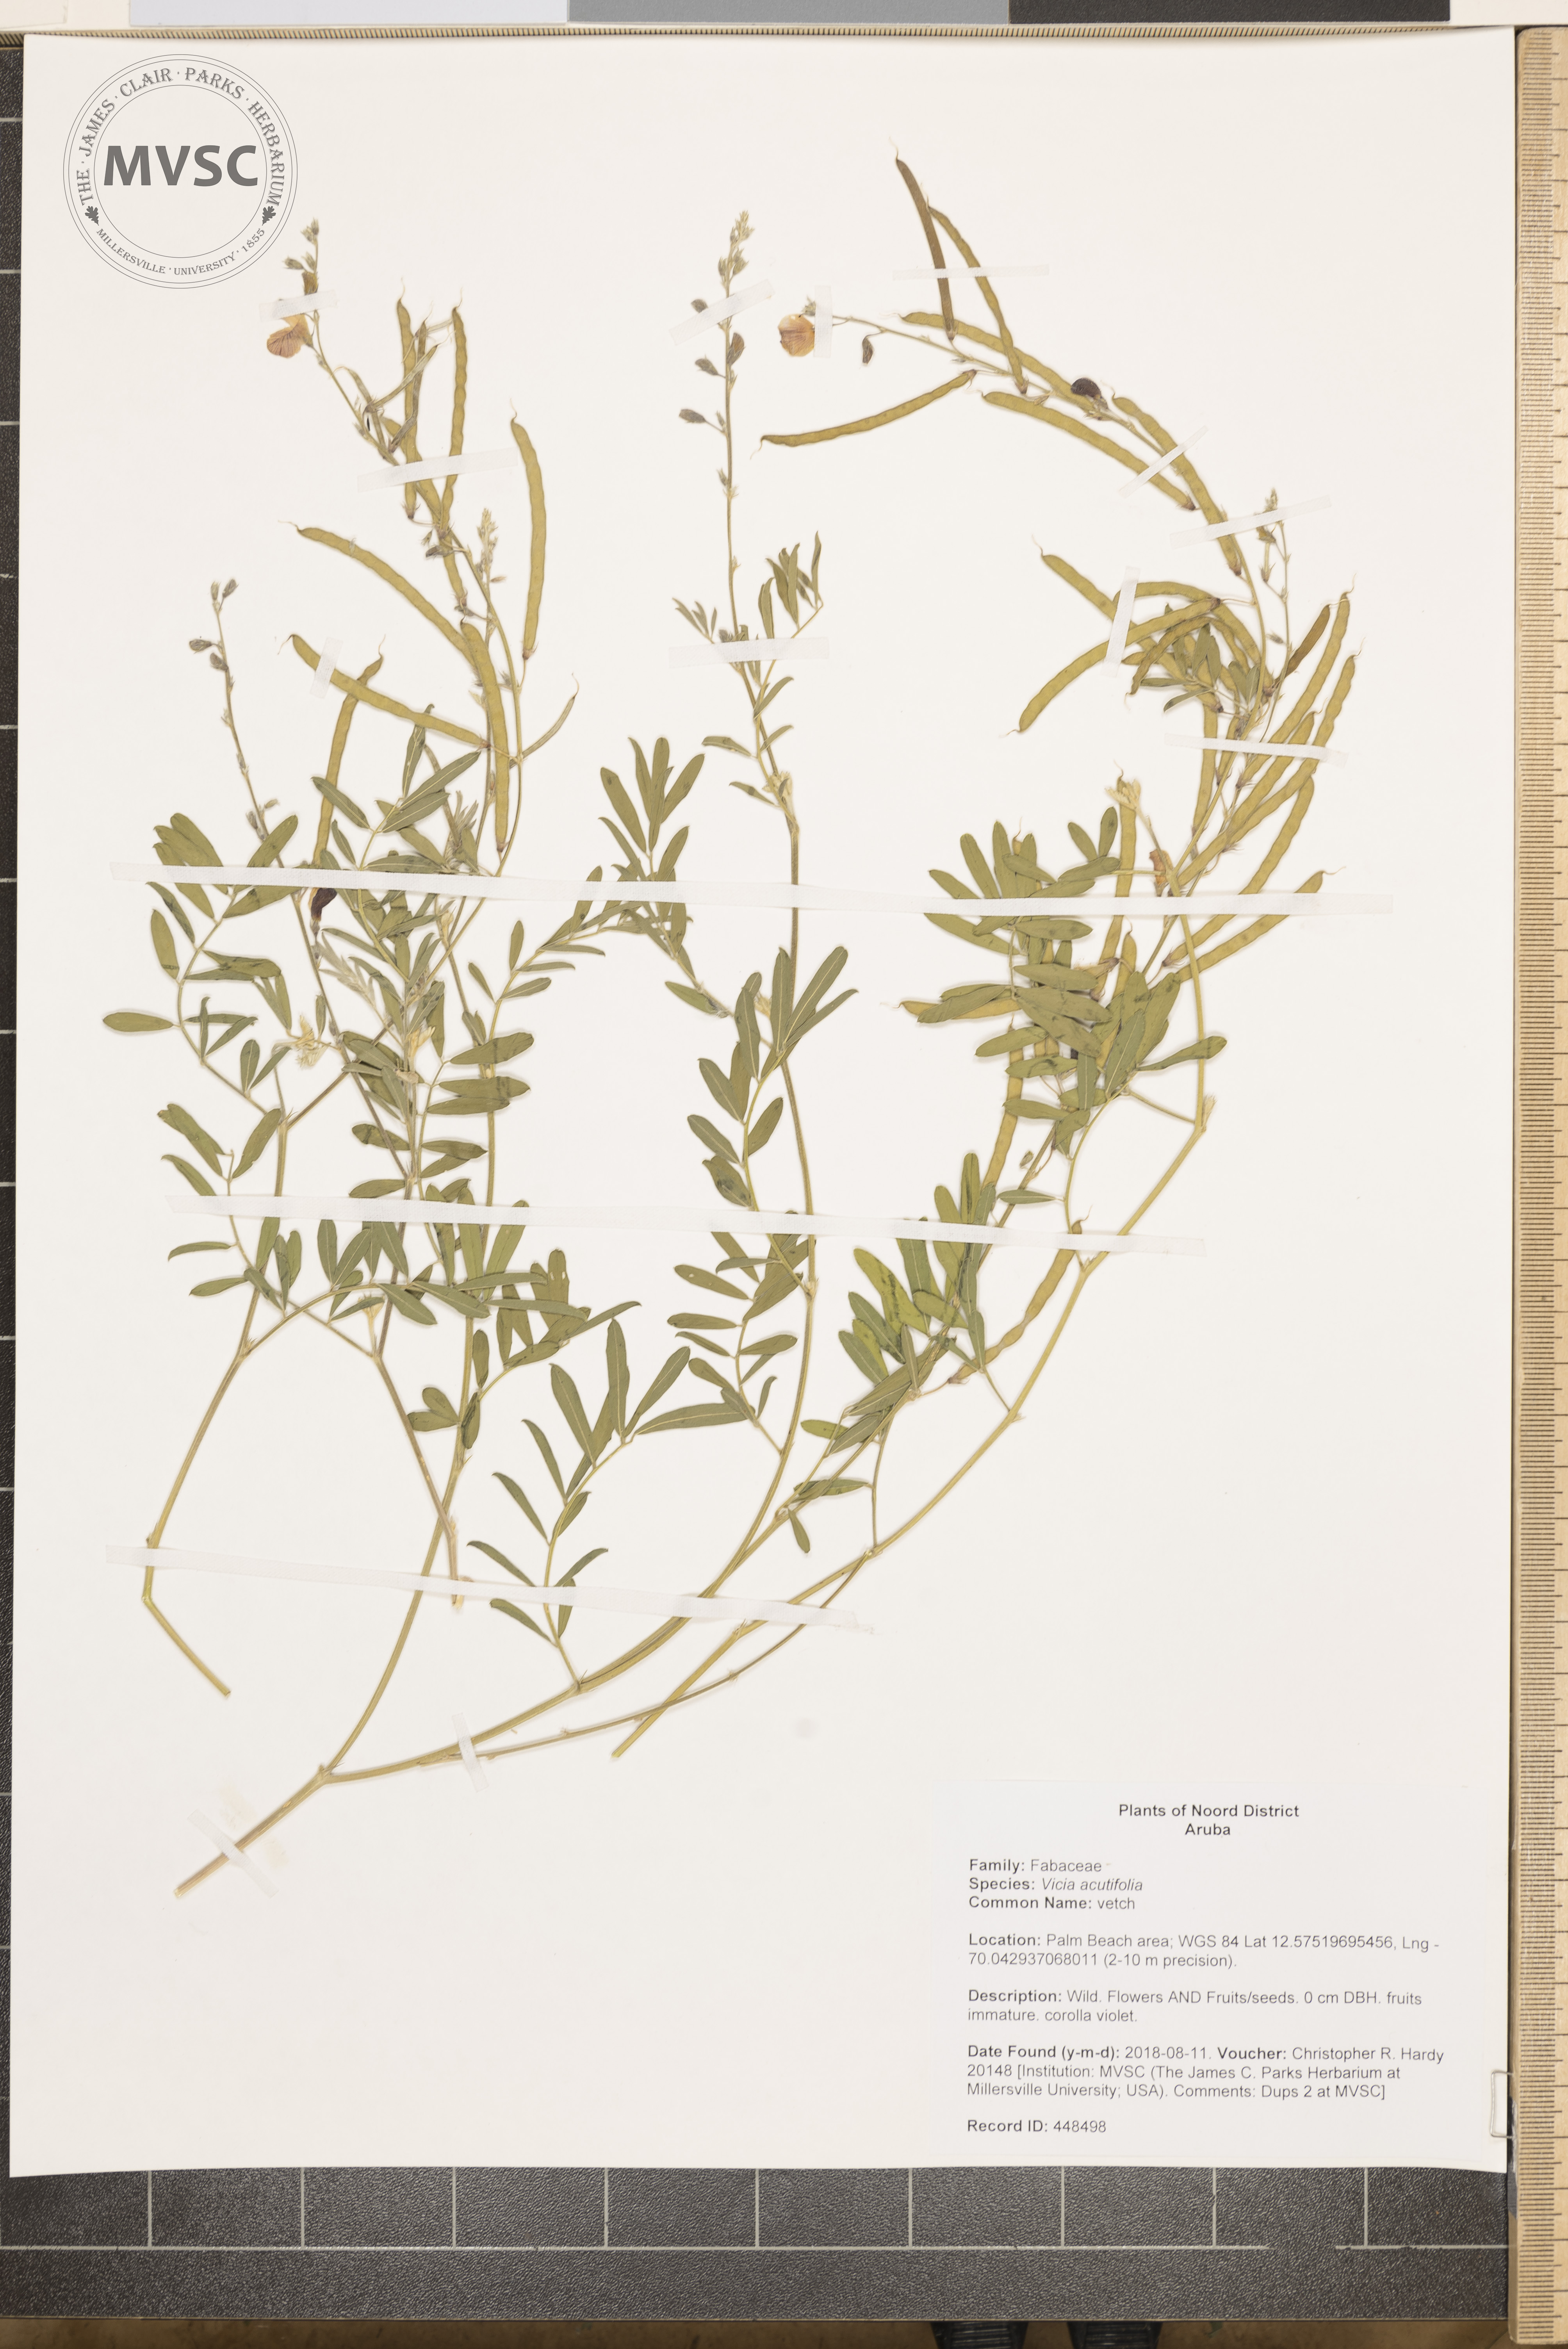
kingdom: Plantae
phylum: Tracheophyta
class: Magnoliopsida
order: Fabales
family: Fabaceae
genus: Vicia
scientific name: Vicia acutifolia
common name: vetch
